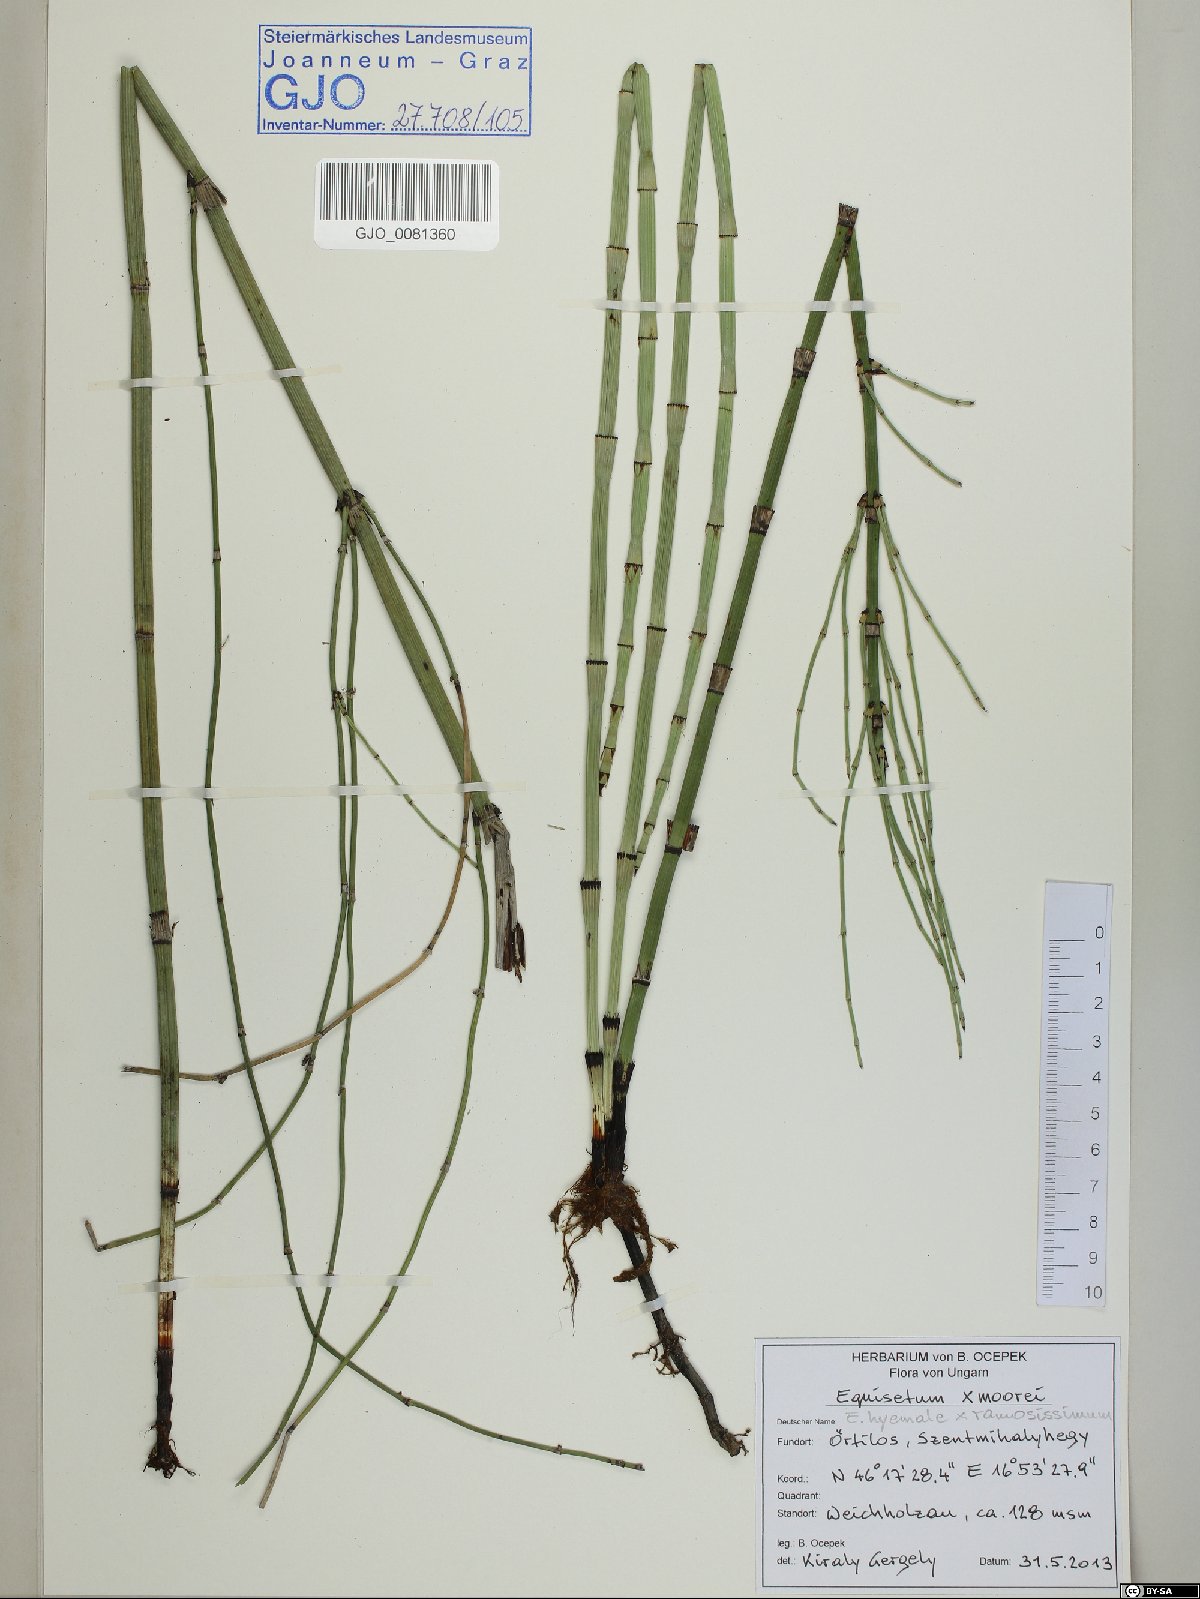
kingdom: Plantae
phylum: Tracheophyta
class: Polypodiopsida
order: Equisetales
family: Equisetaceae
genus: Equisetum
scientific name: Equisetum hyemale
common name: Rough horsetail
